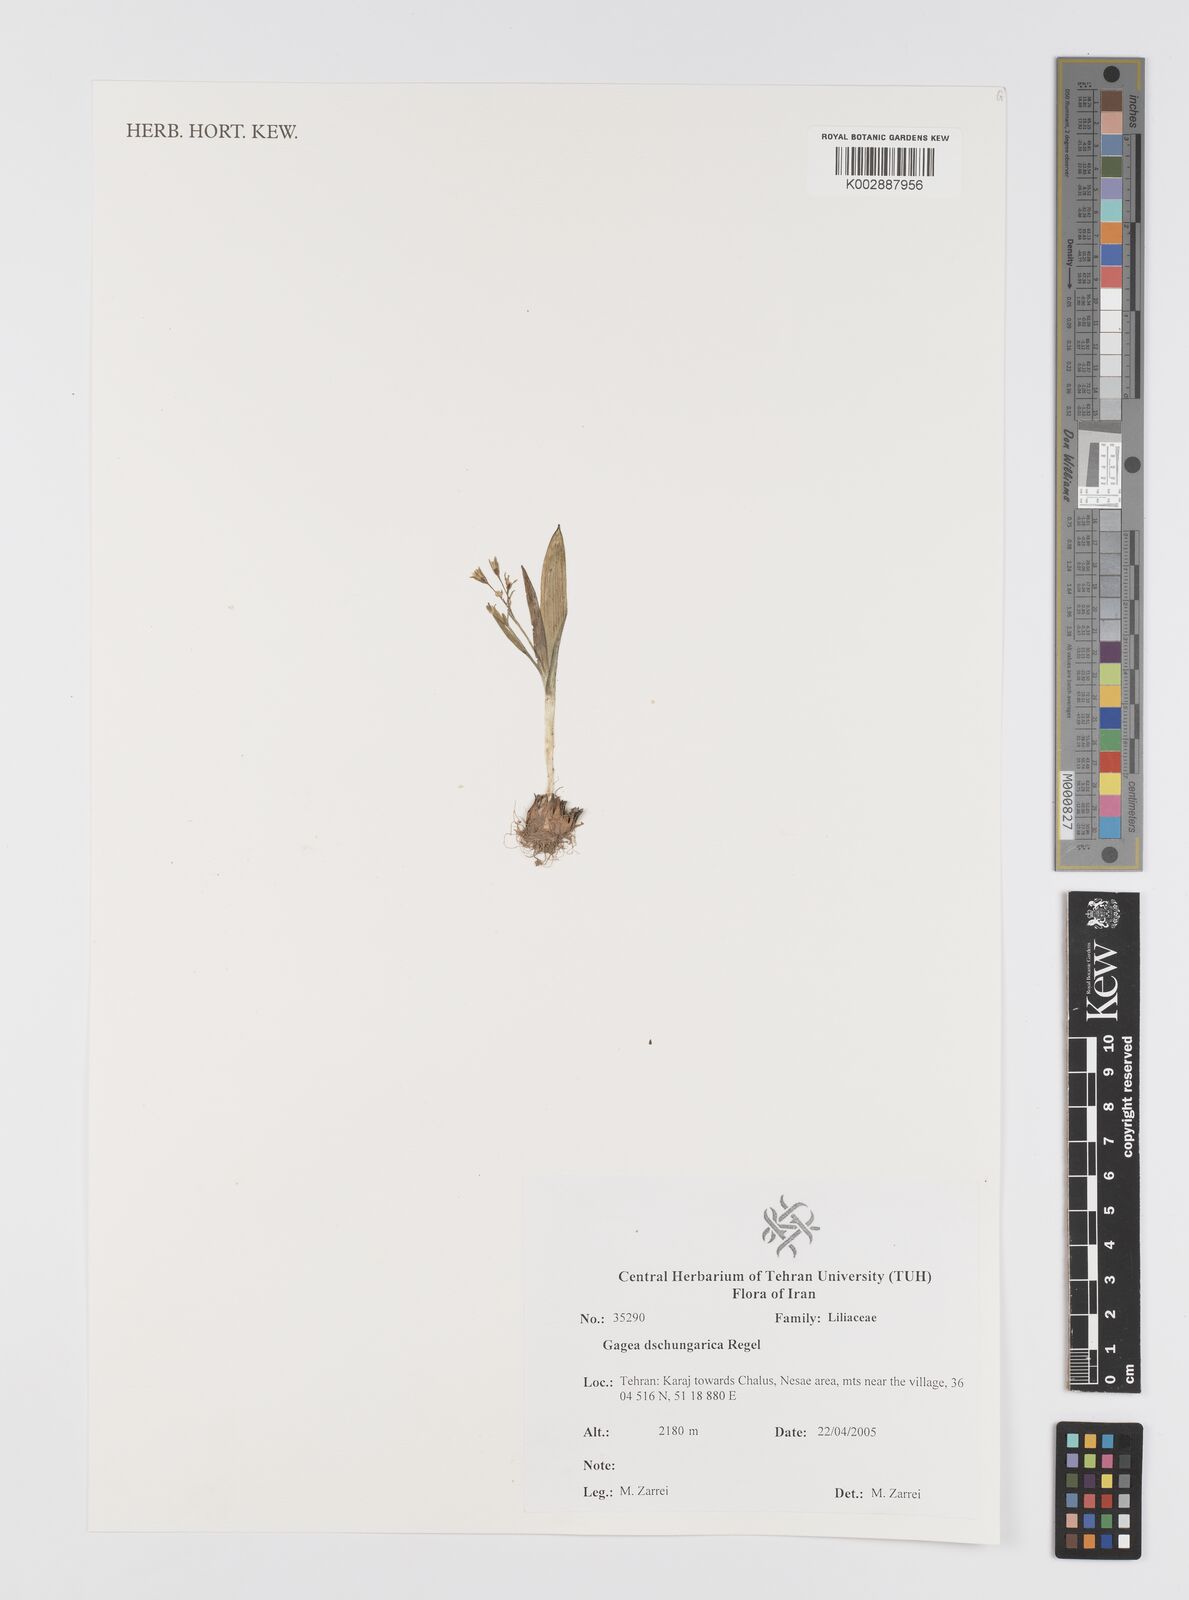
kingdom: Plantae
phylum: Tracheophyta
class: Liliopsida
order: Liliales
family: Liliaceae
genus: Gagea
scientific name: Gagea dschungarica
